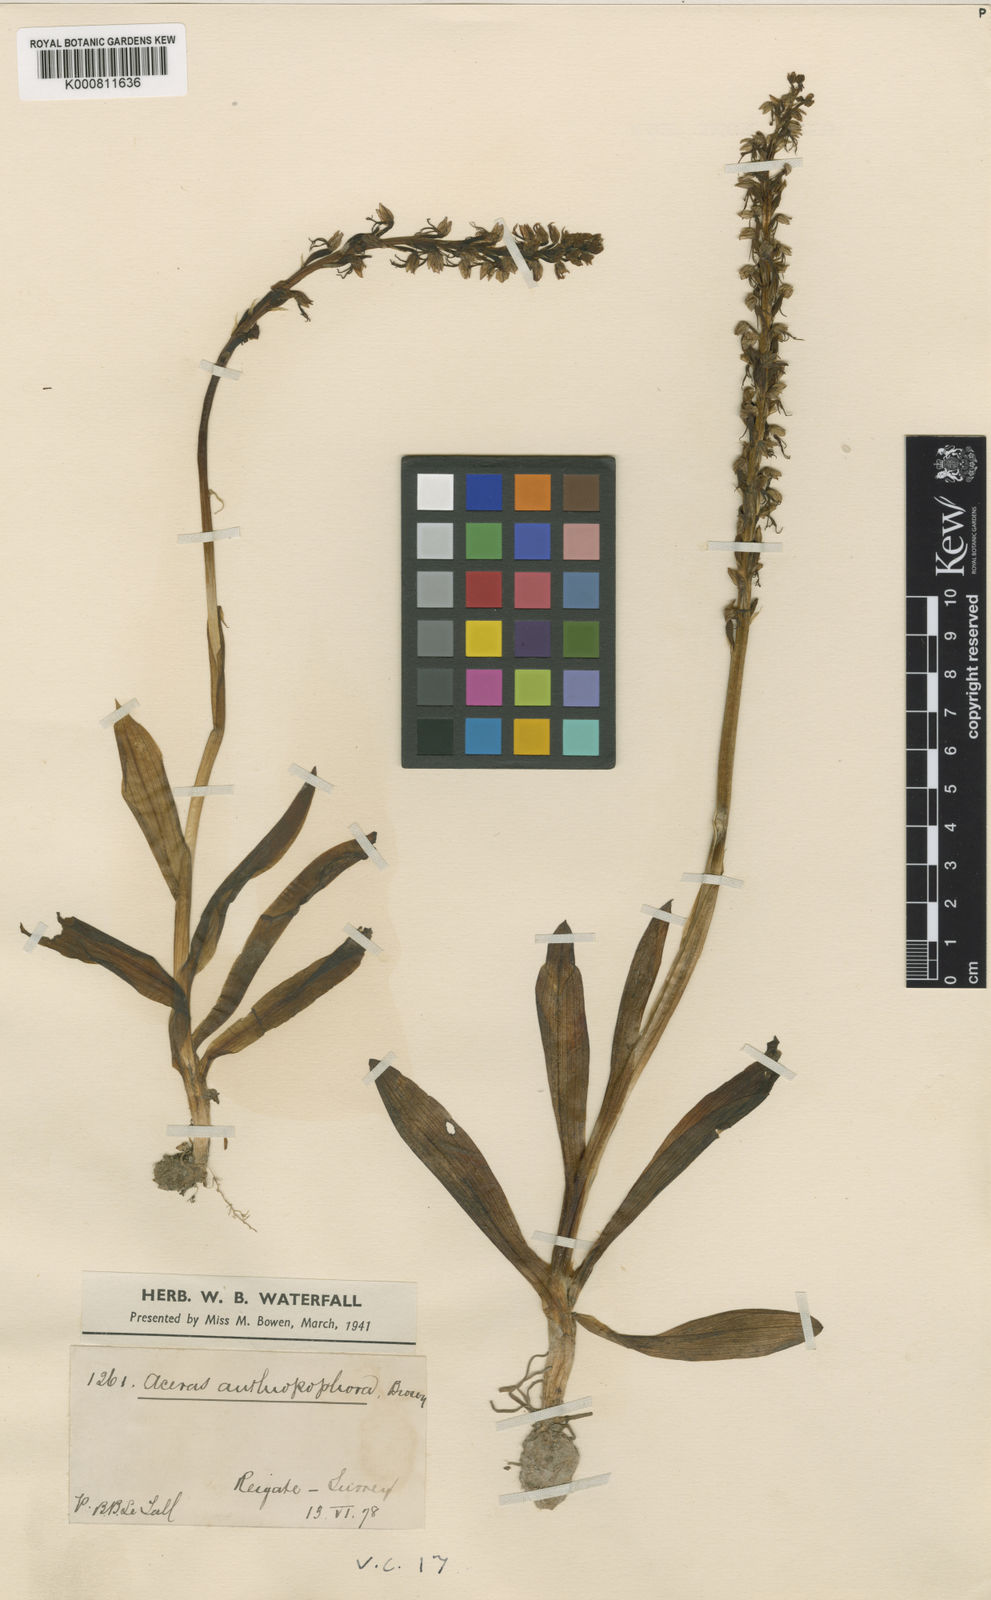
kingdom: Plantae
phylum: Tracheophyta
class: Liliopsida
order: Asparagales
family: Orchidaceae
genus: Orchis
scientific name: Orchis
